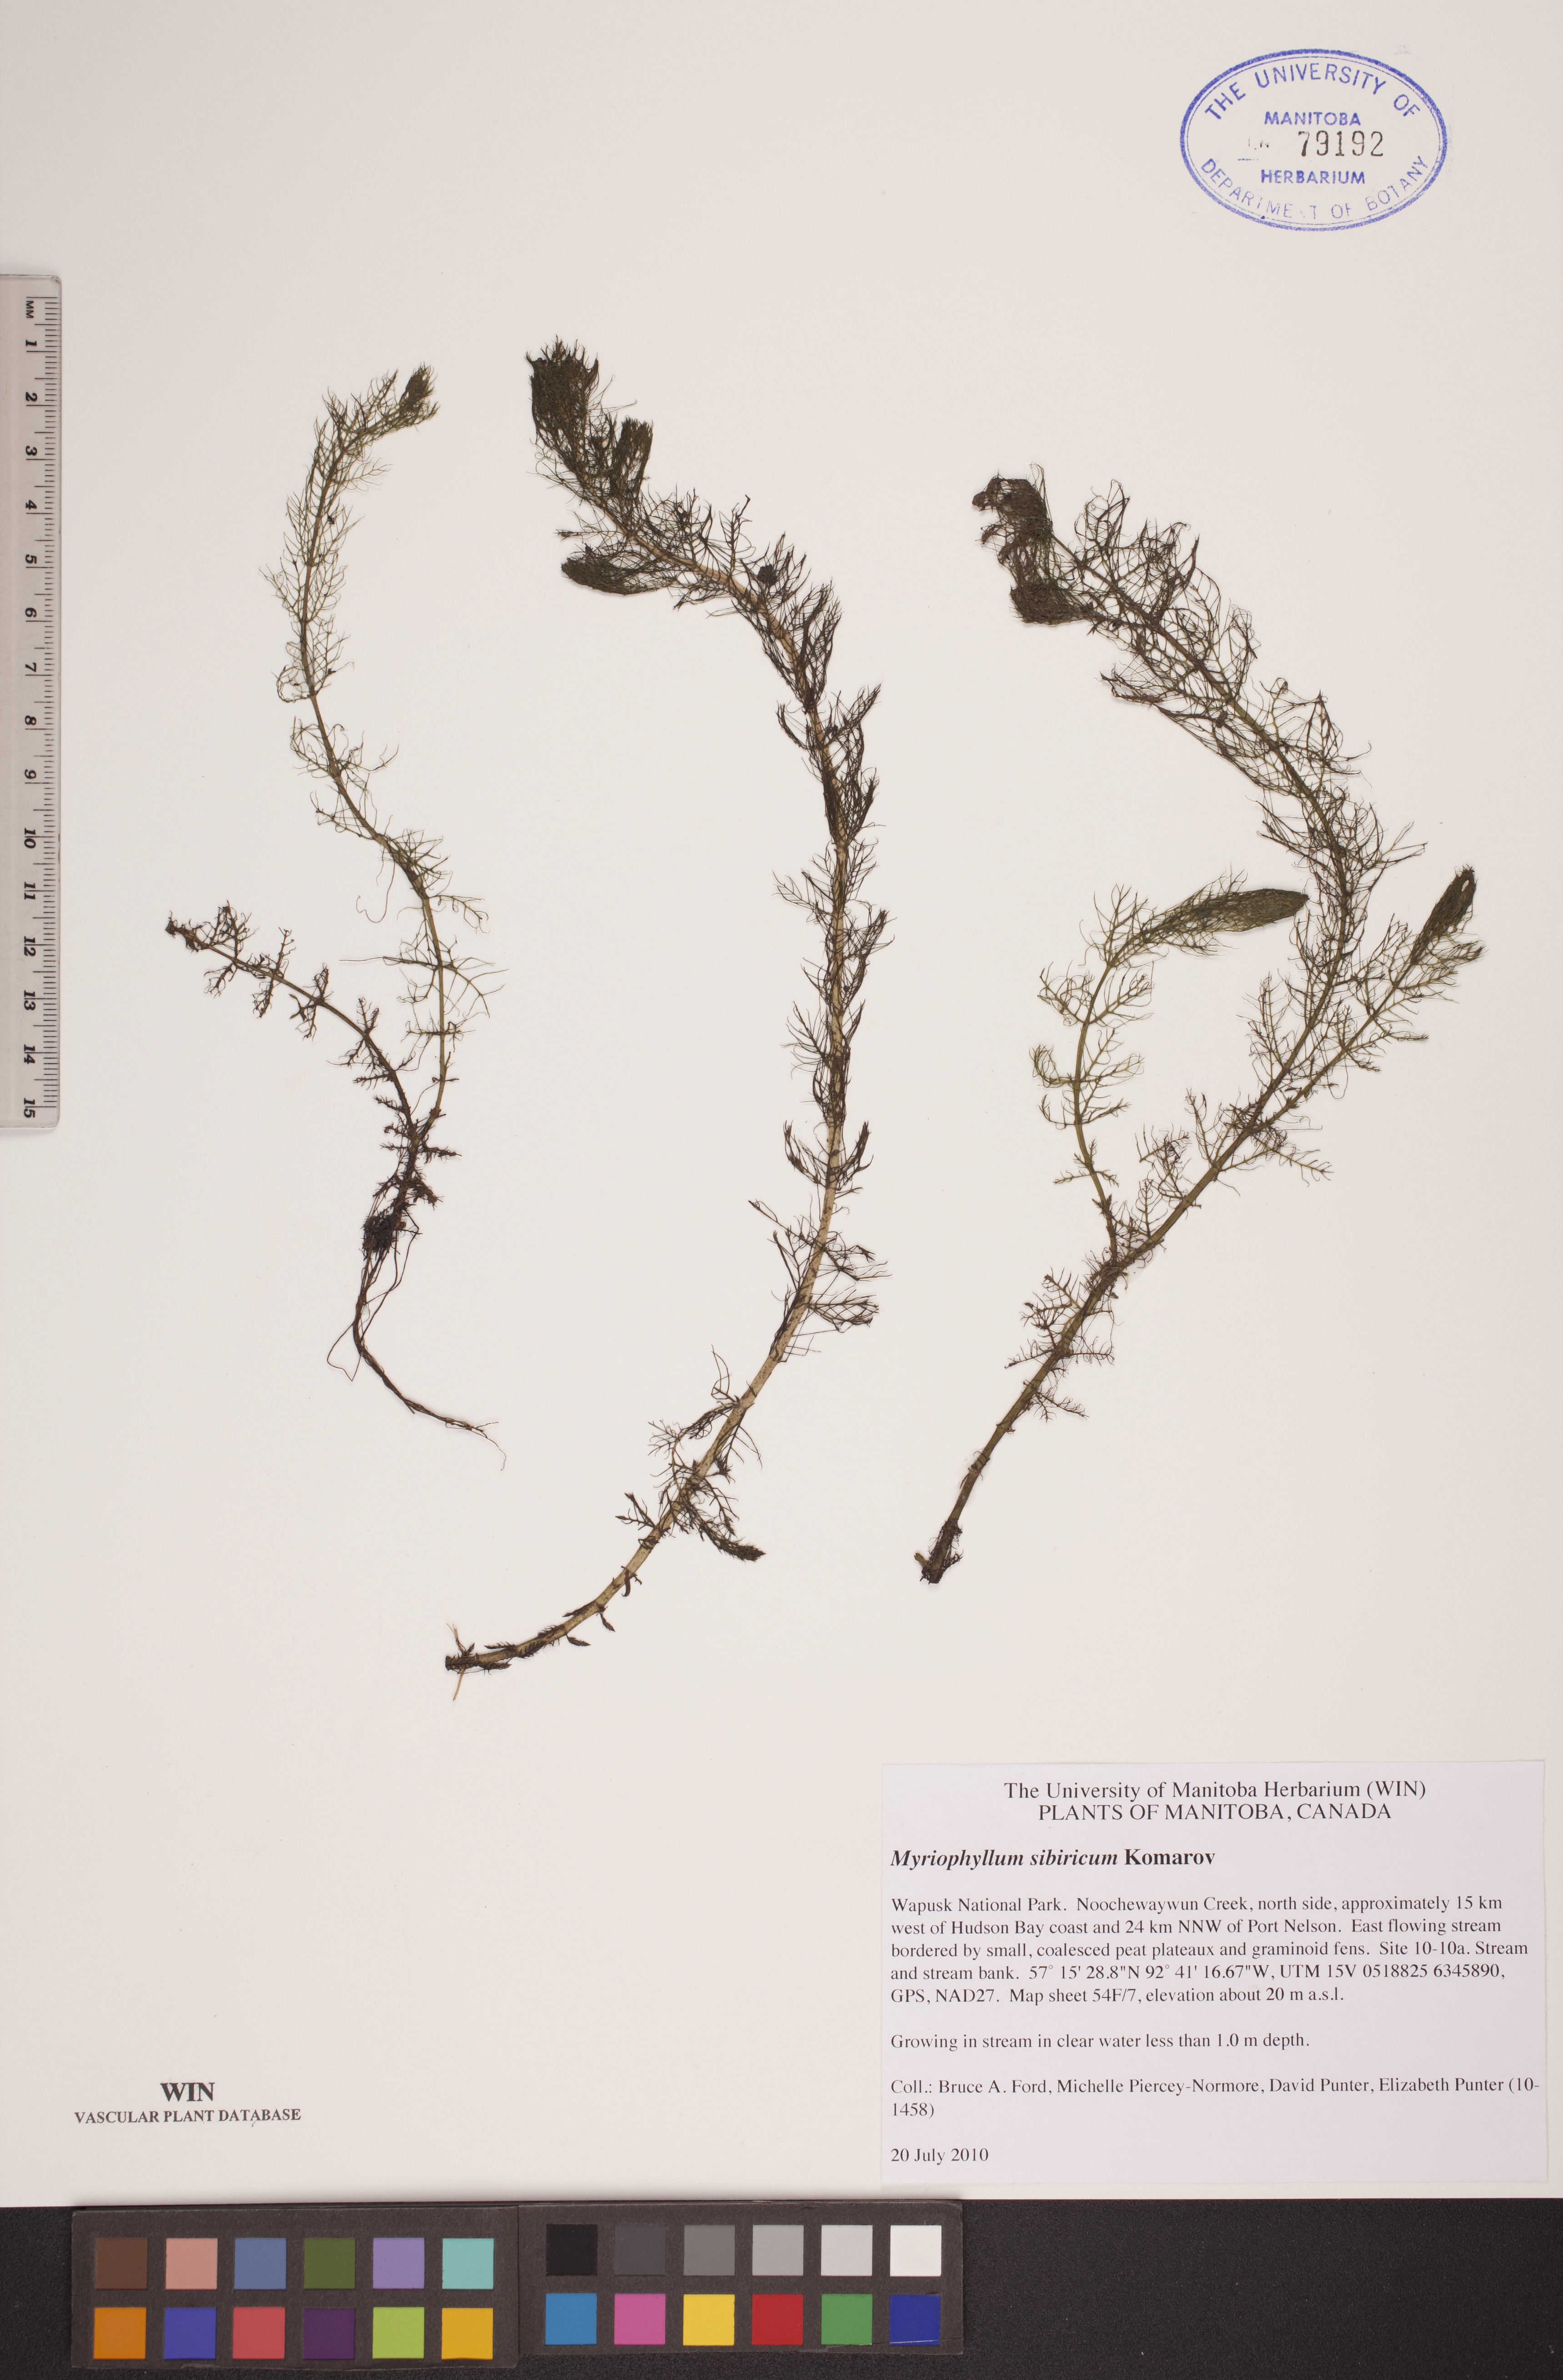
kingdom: Plantae
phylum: Tracheophyta
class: Magnoliopsida
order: Saxifragales
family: Haloragaceae
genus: Myriophyllum
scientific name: Myriophyllum sibiricum
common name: Siberian water-milfoil
